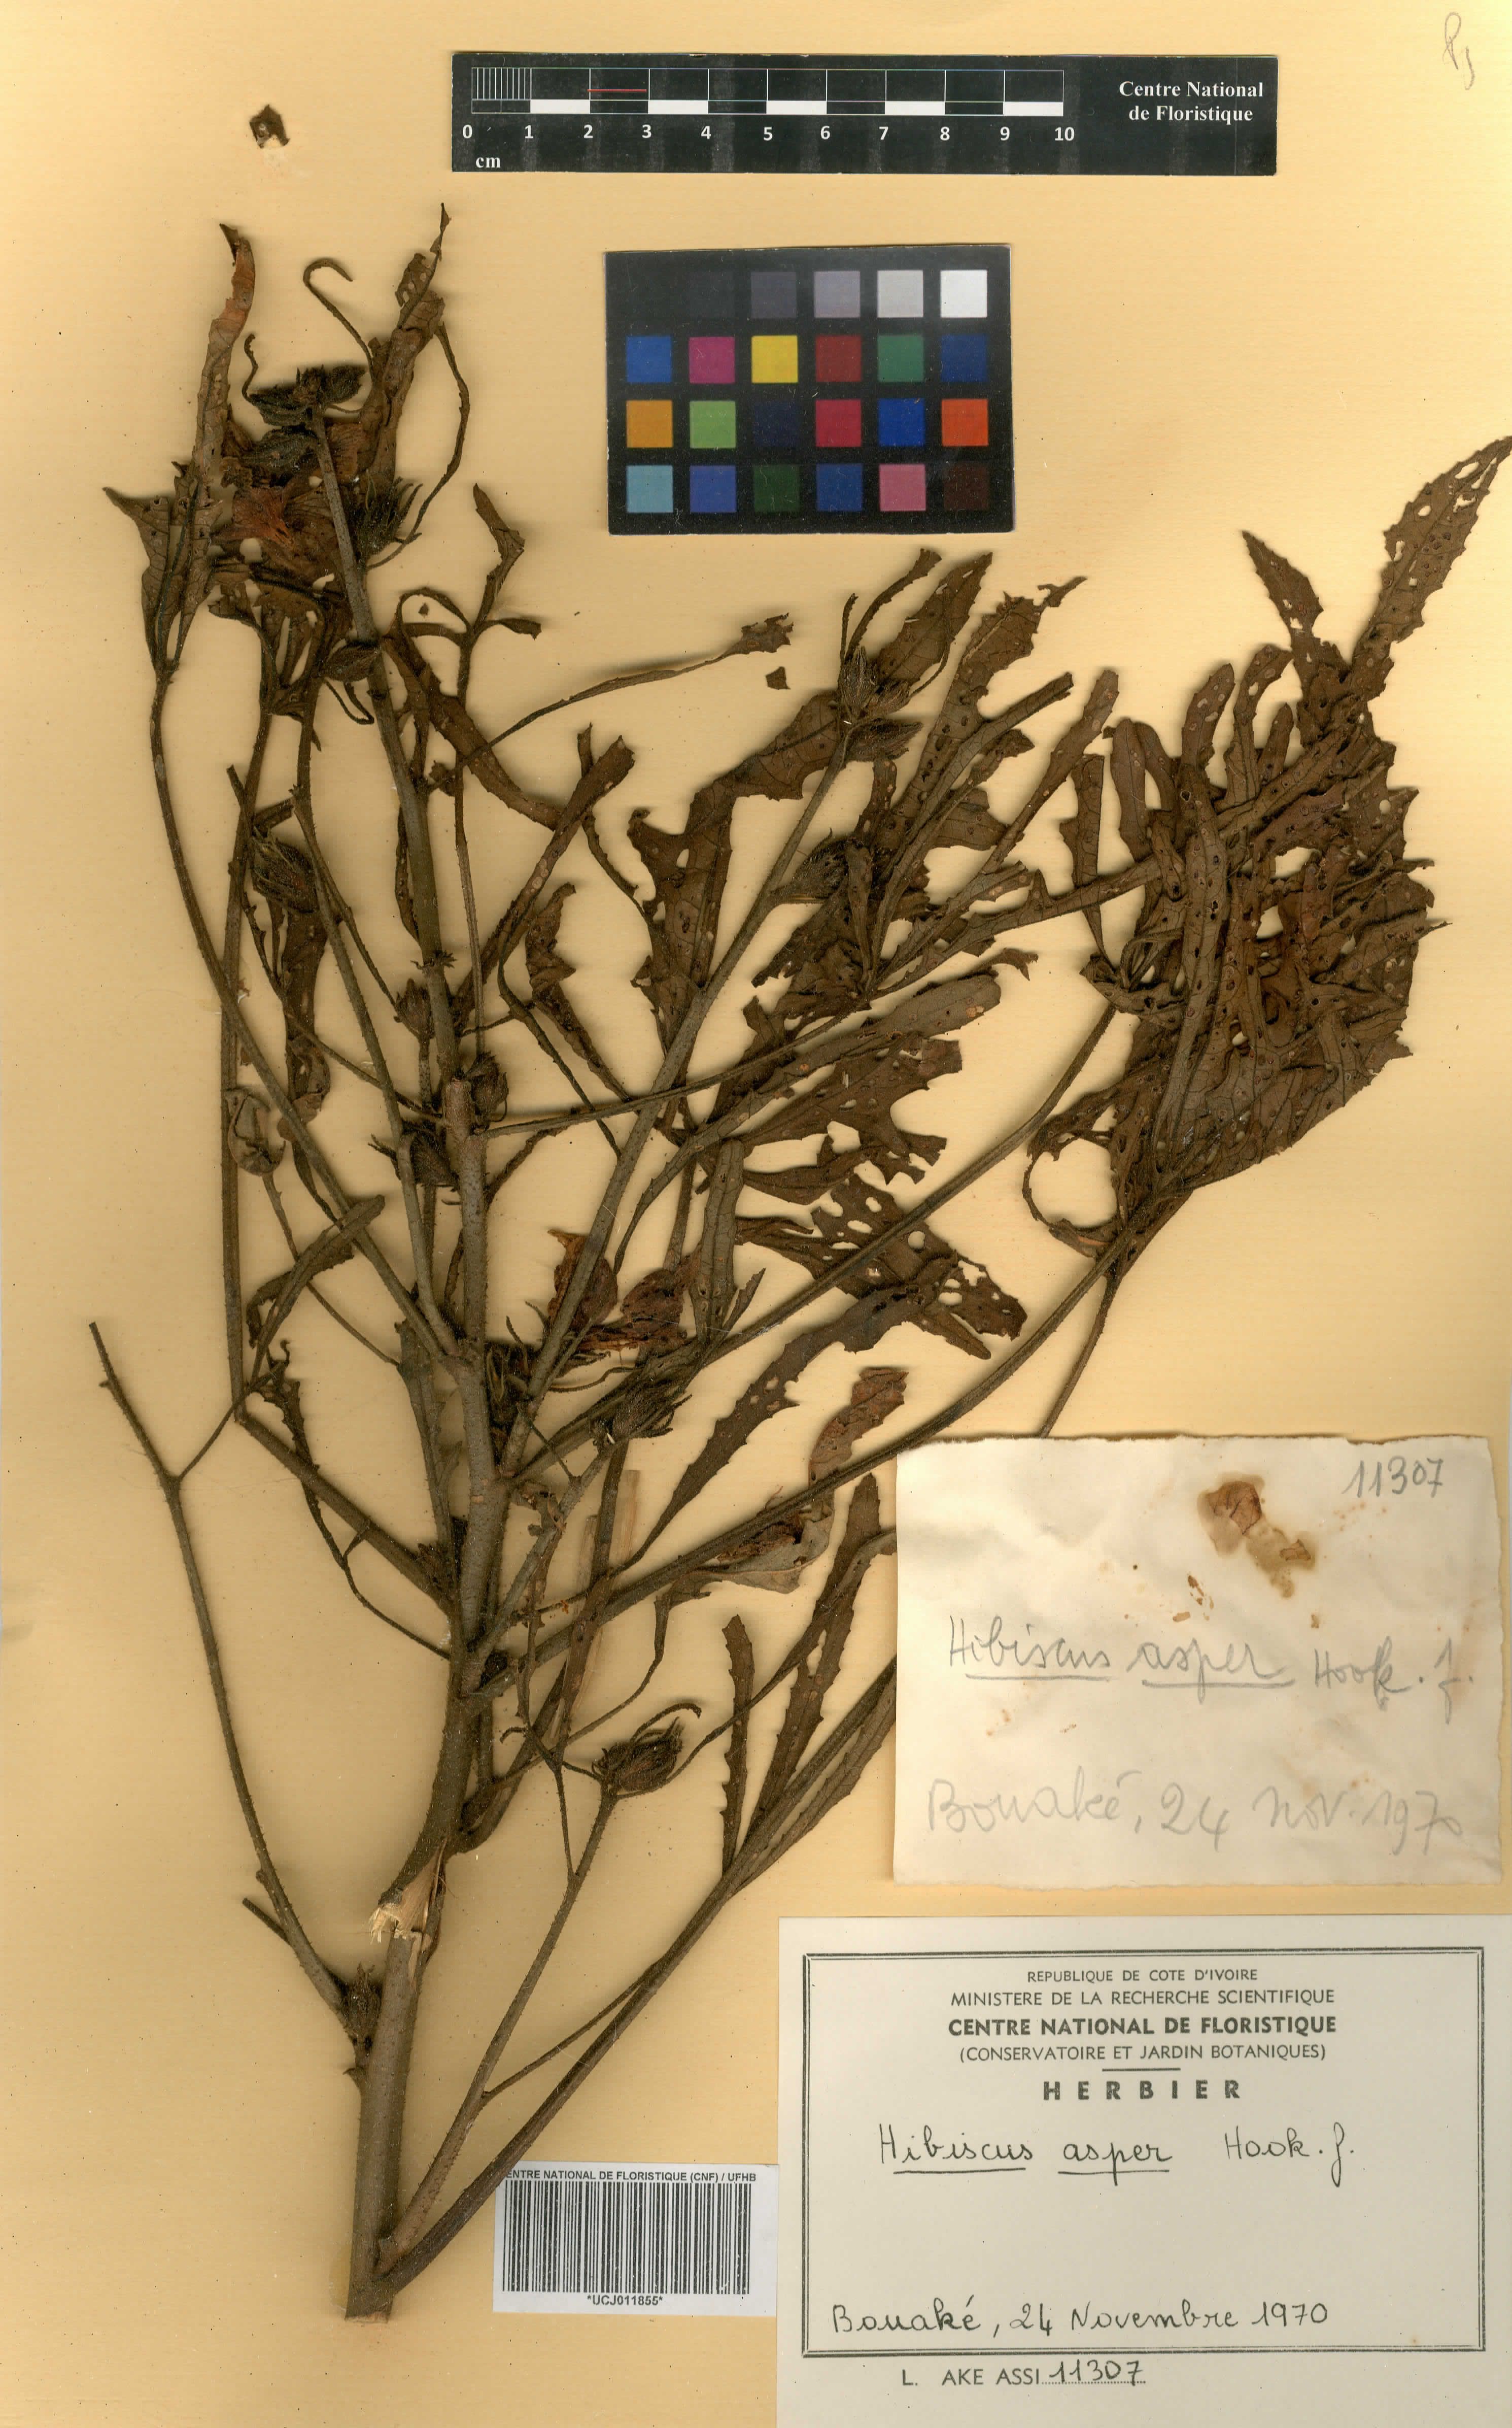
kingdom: Plantae
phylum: Tracheophyta
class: Magnoliopsida
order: Malvales
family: Malvaceae
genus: Hibiscus
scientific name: Hibiscus cannabinus
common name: Brown indianhemp
